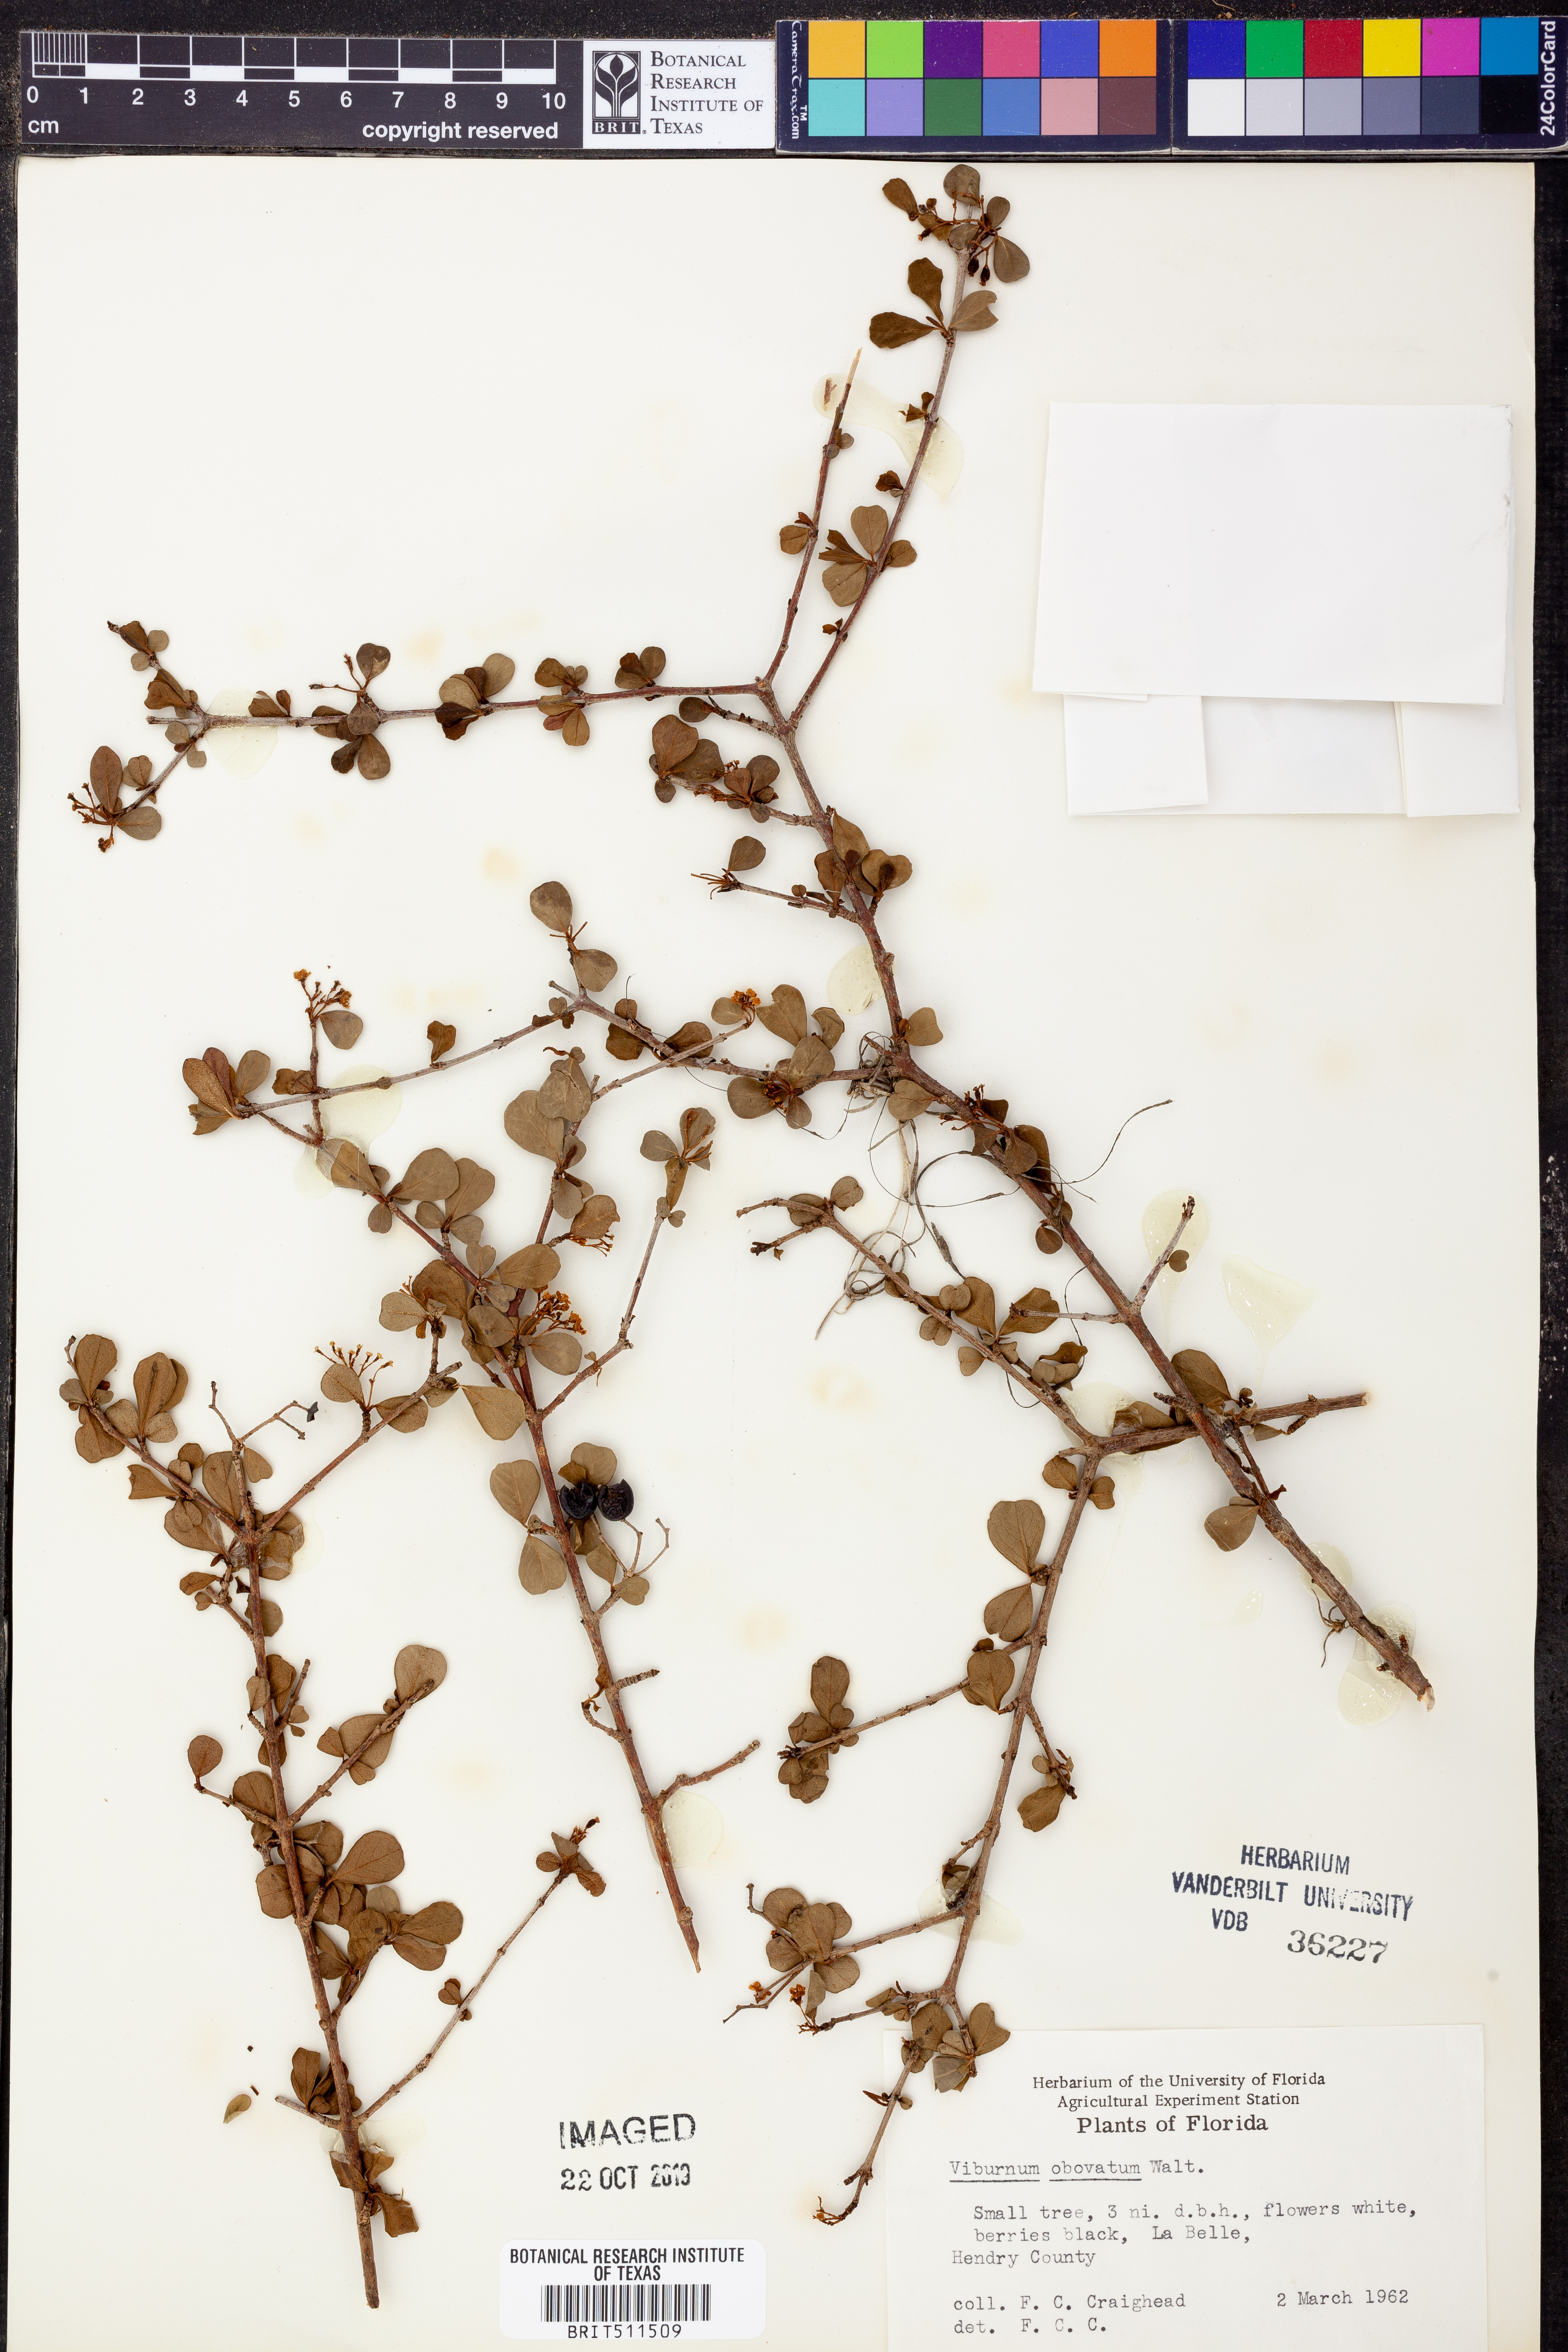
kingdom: Plantae
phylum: Tracheophyta
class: Magnoliopsida
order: Dipsacales
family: Viburnaceae
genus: Viburnum
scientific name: Viburnum obovatum
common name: Walter's viburnum
